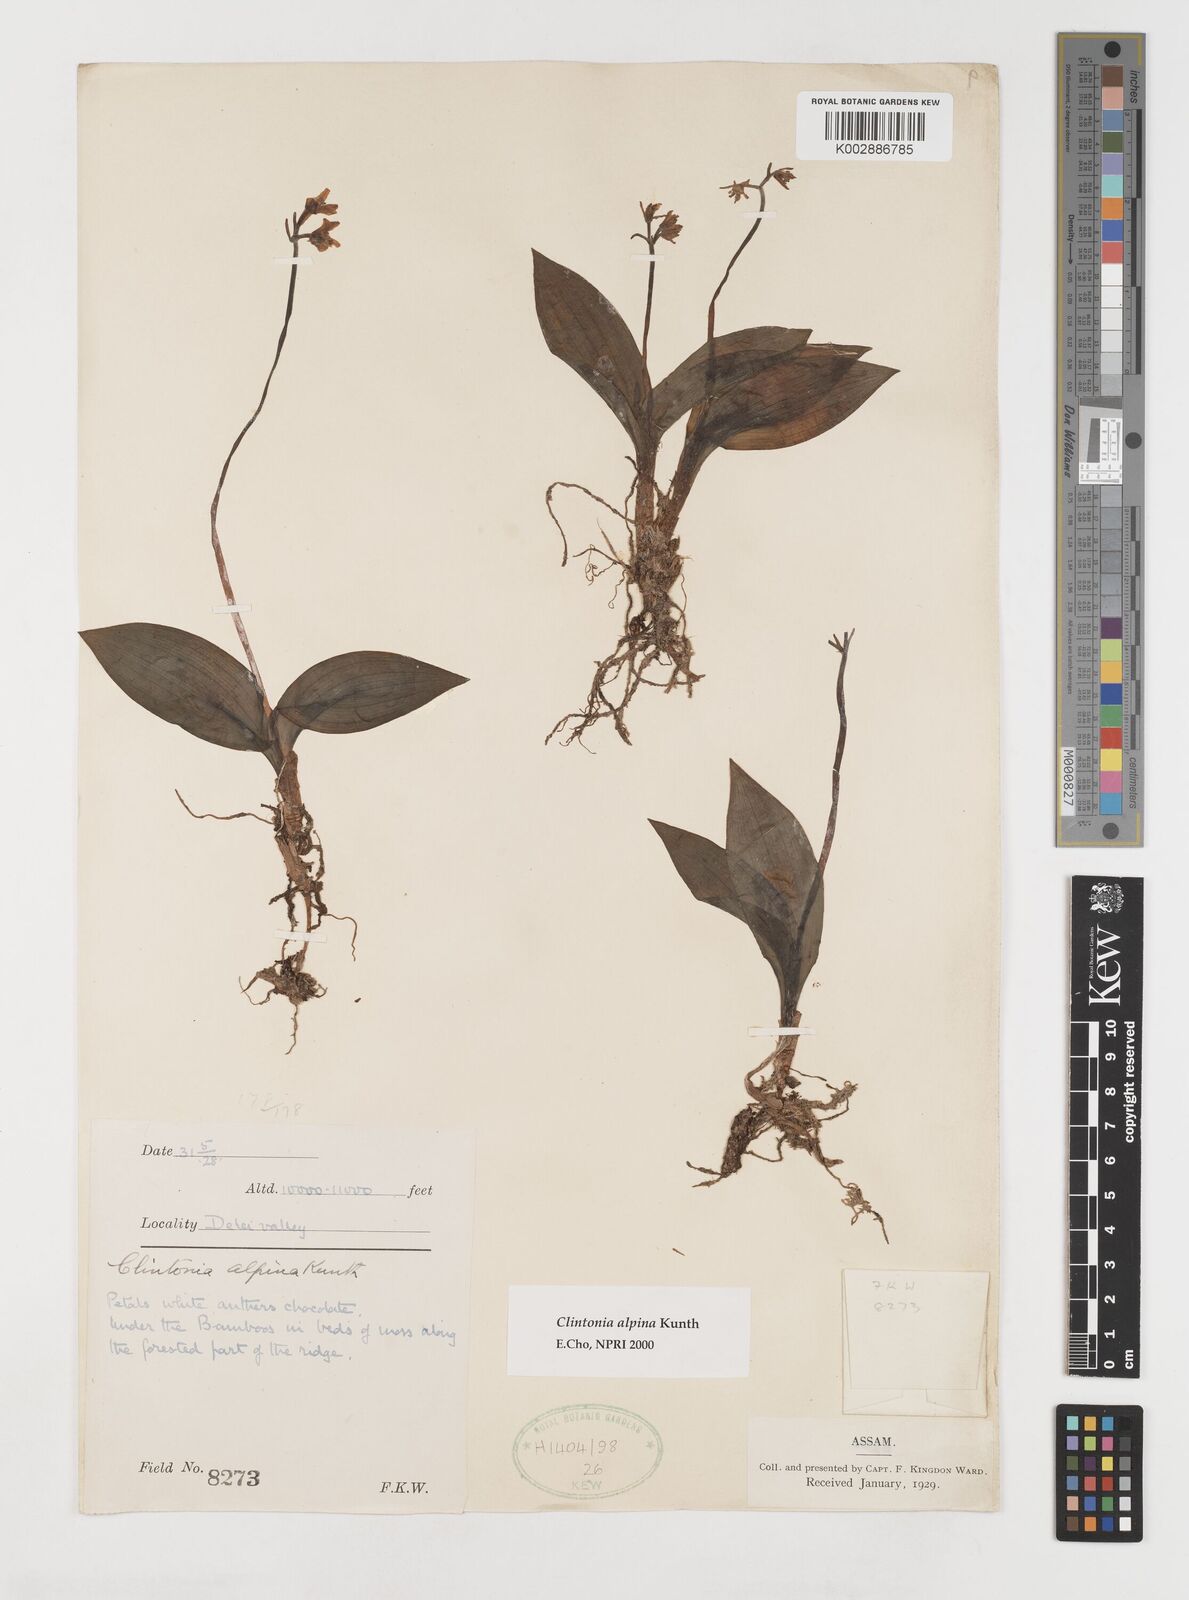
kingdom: Plantae
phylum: Tracheophyta
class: Liliopsida
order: Liliales
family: Liliaceae
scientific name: Liliaceae
